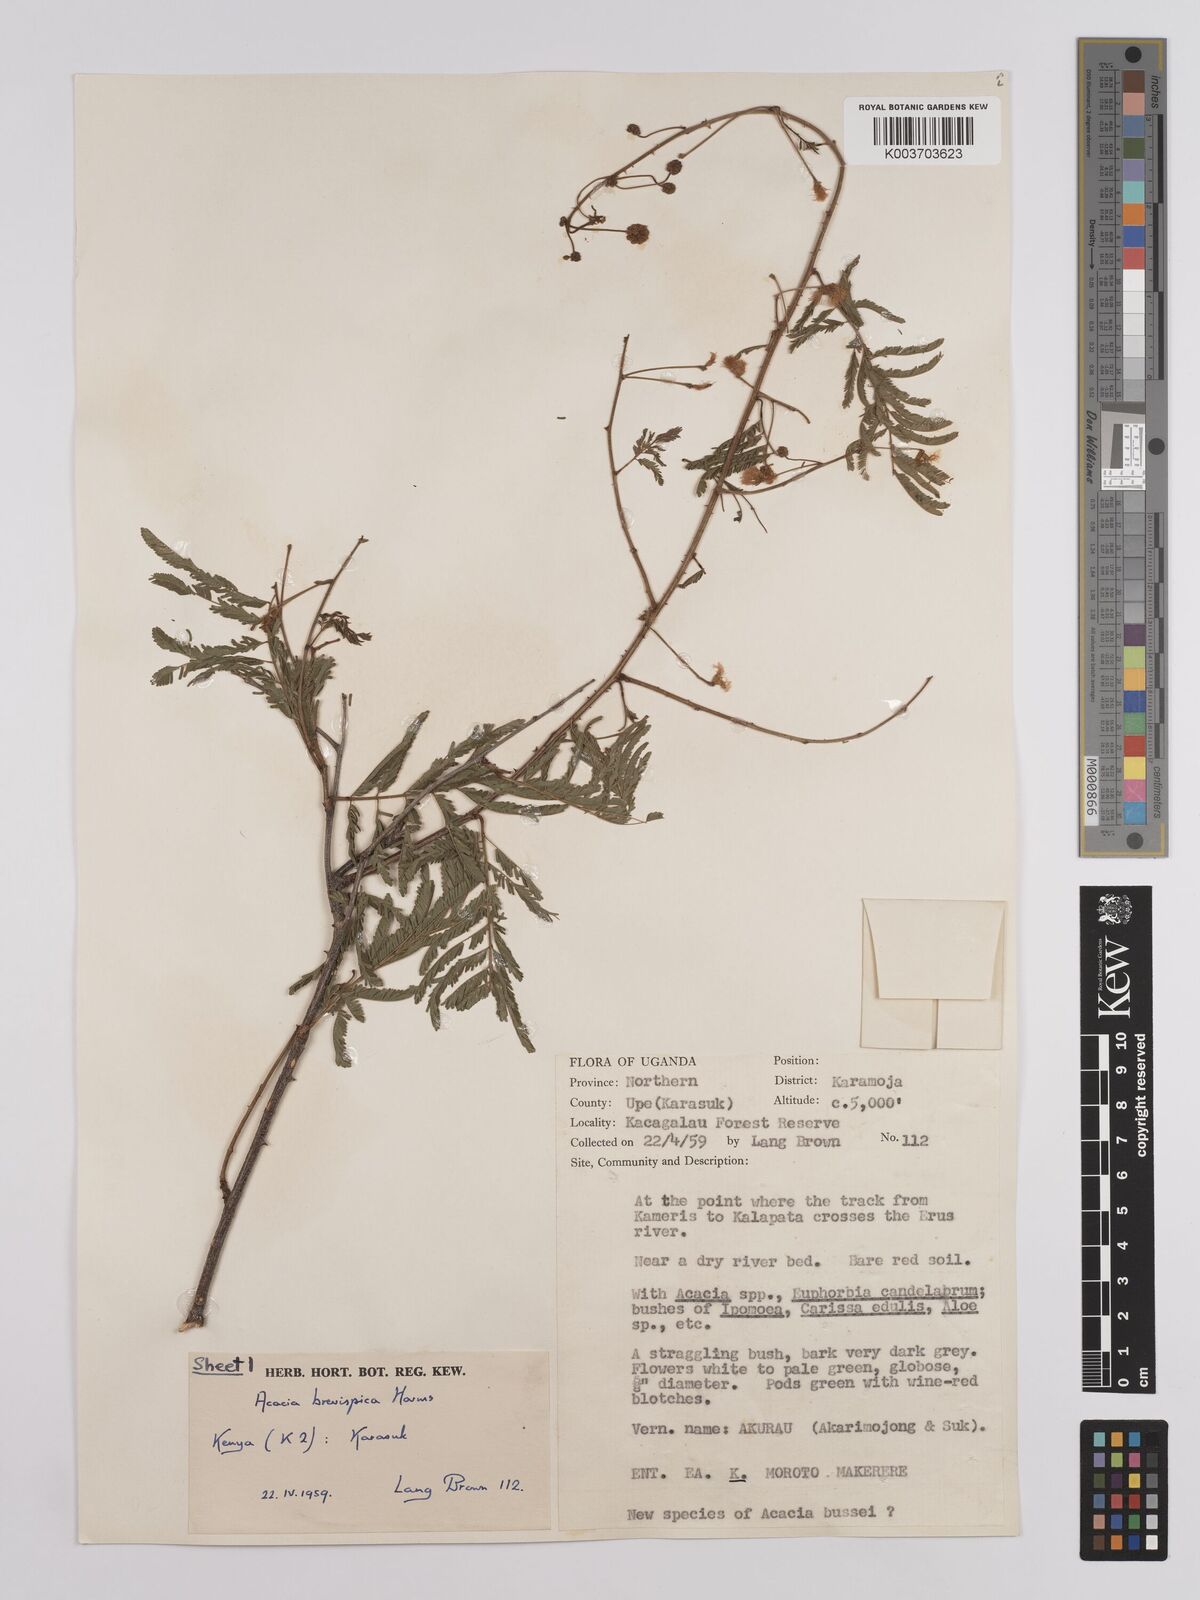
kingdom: Plantae
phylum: Tracheophyta
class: Magnoliopsida
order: Fabales
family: Fabaceae
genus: Senegalia
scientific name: Senegalia brevispica
